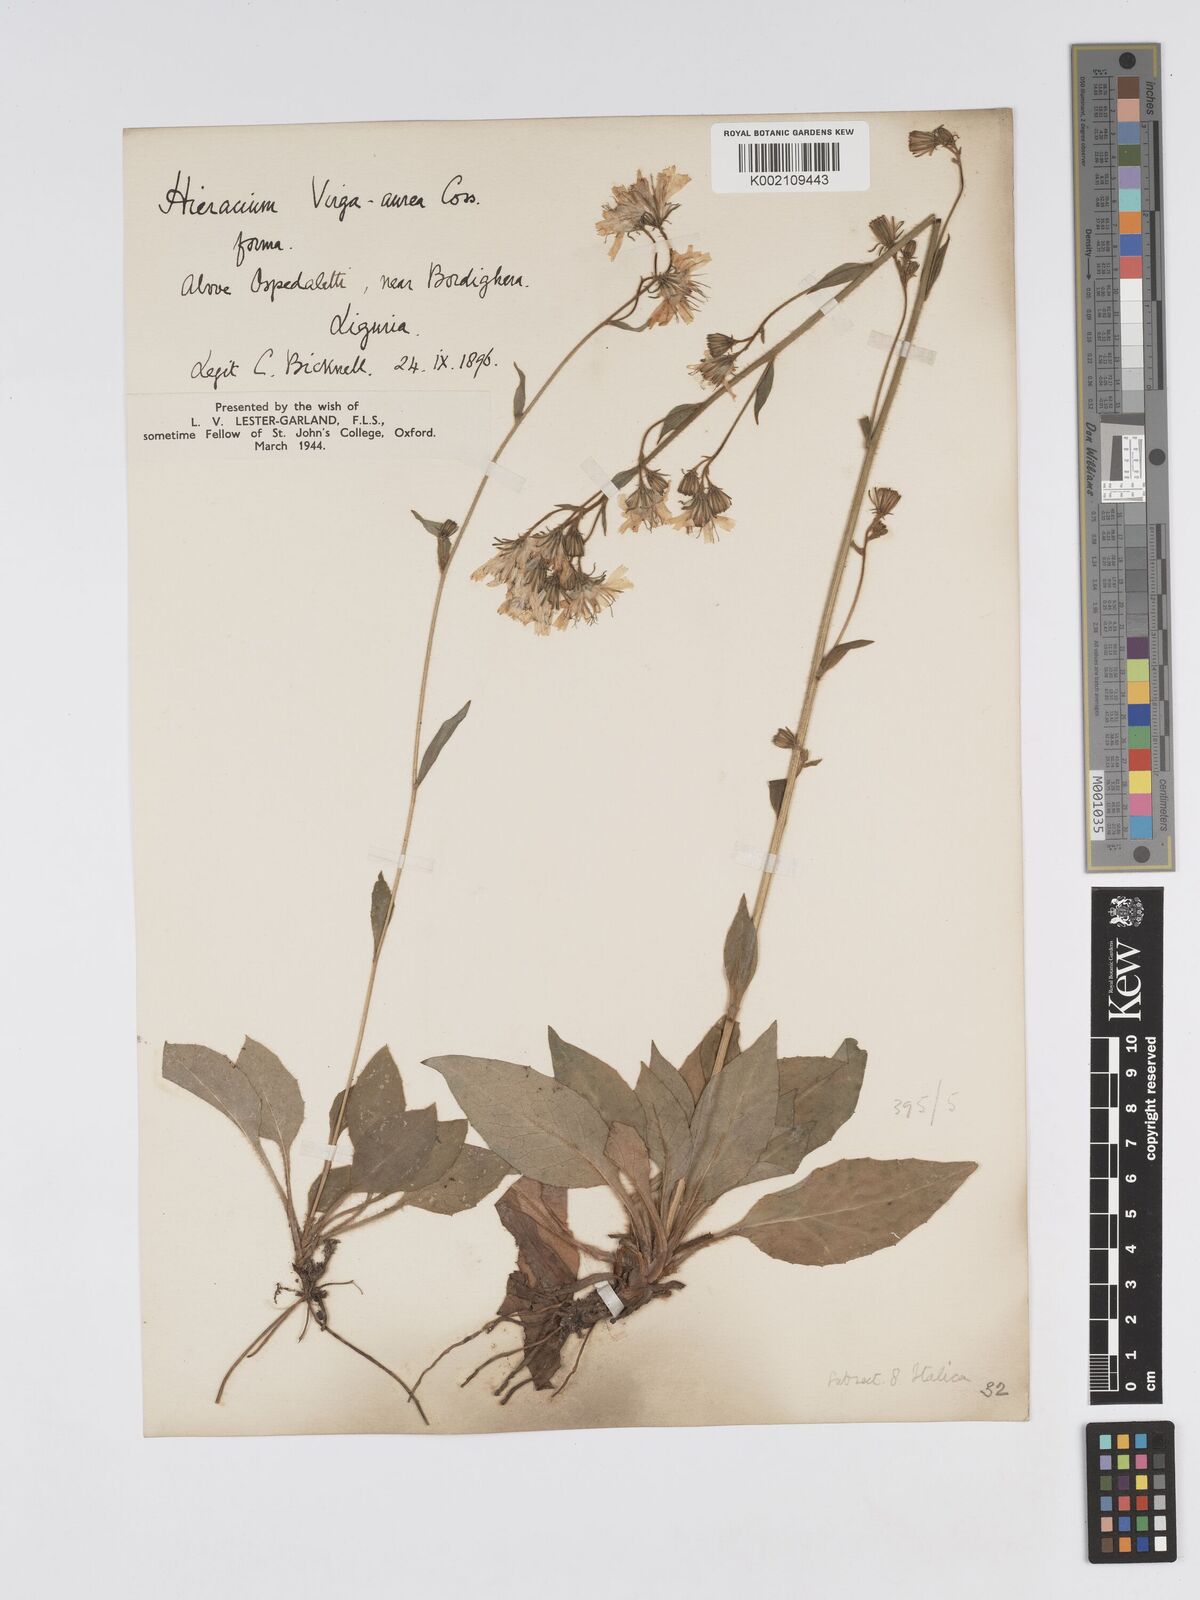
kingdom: Plantae
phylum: Tracheophyta
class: Magnoliopsida
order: Asterales
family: Asteraceae
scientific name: Asteraceae
